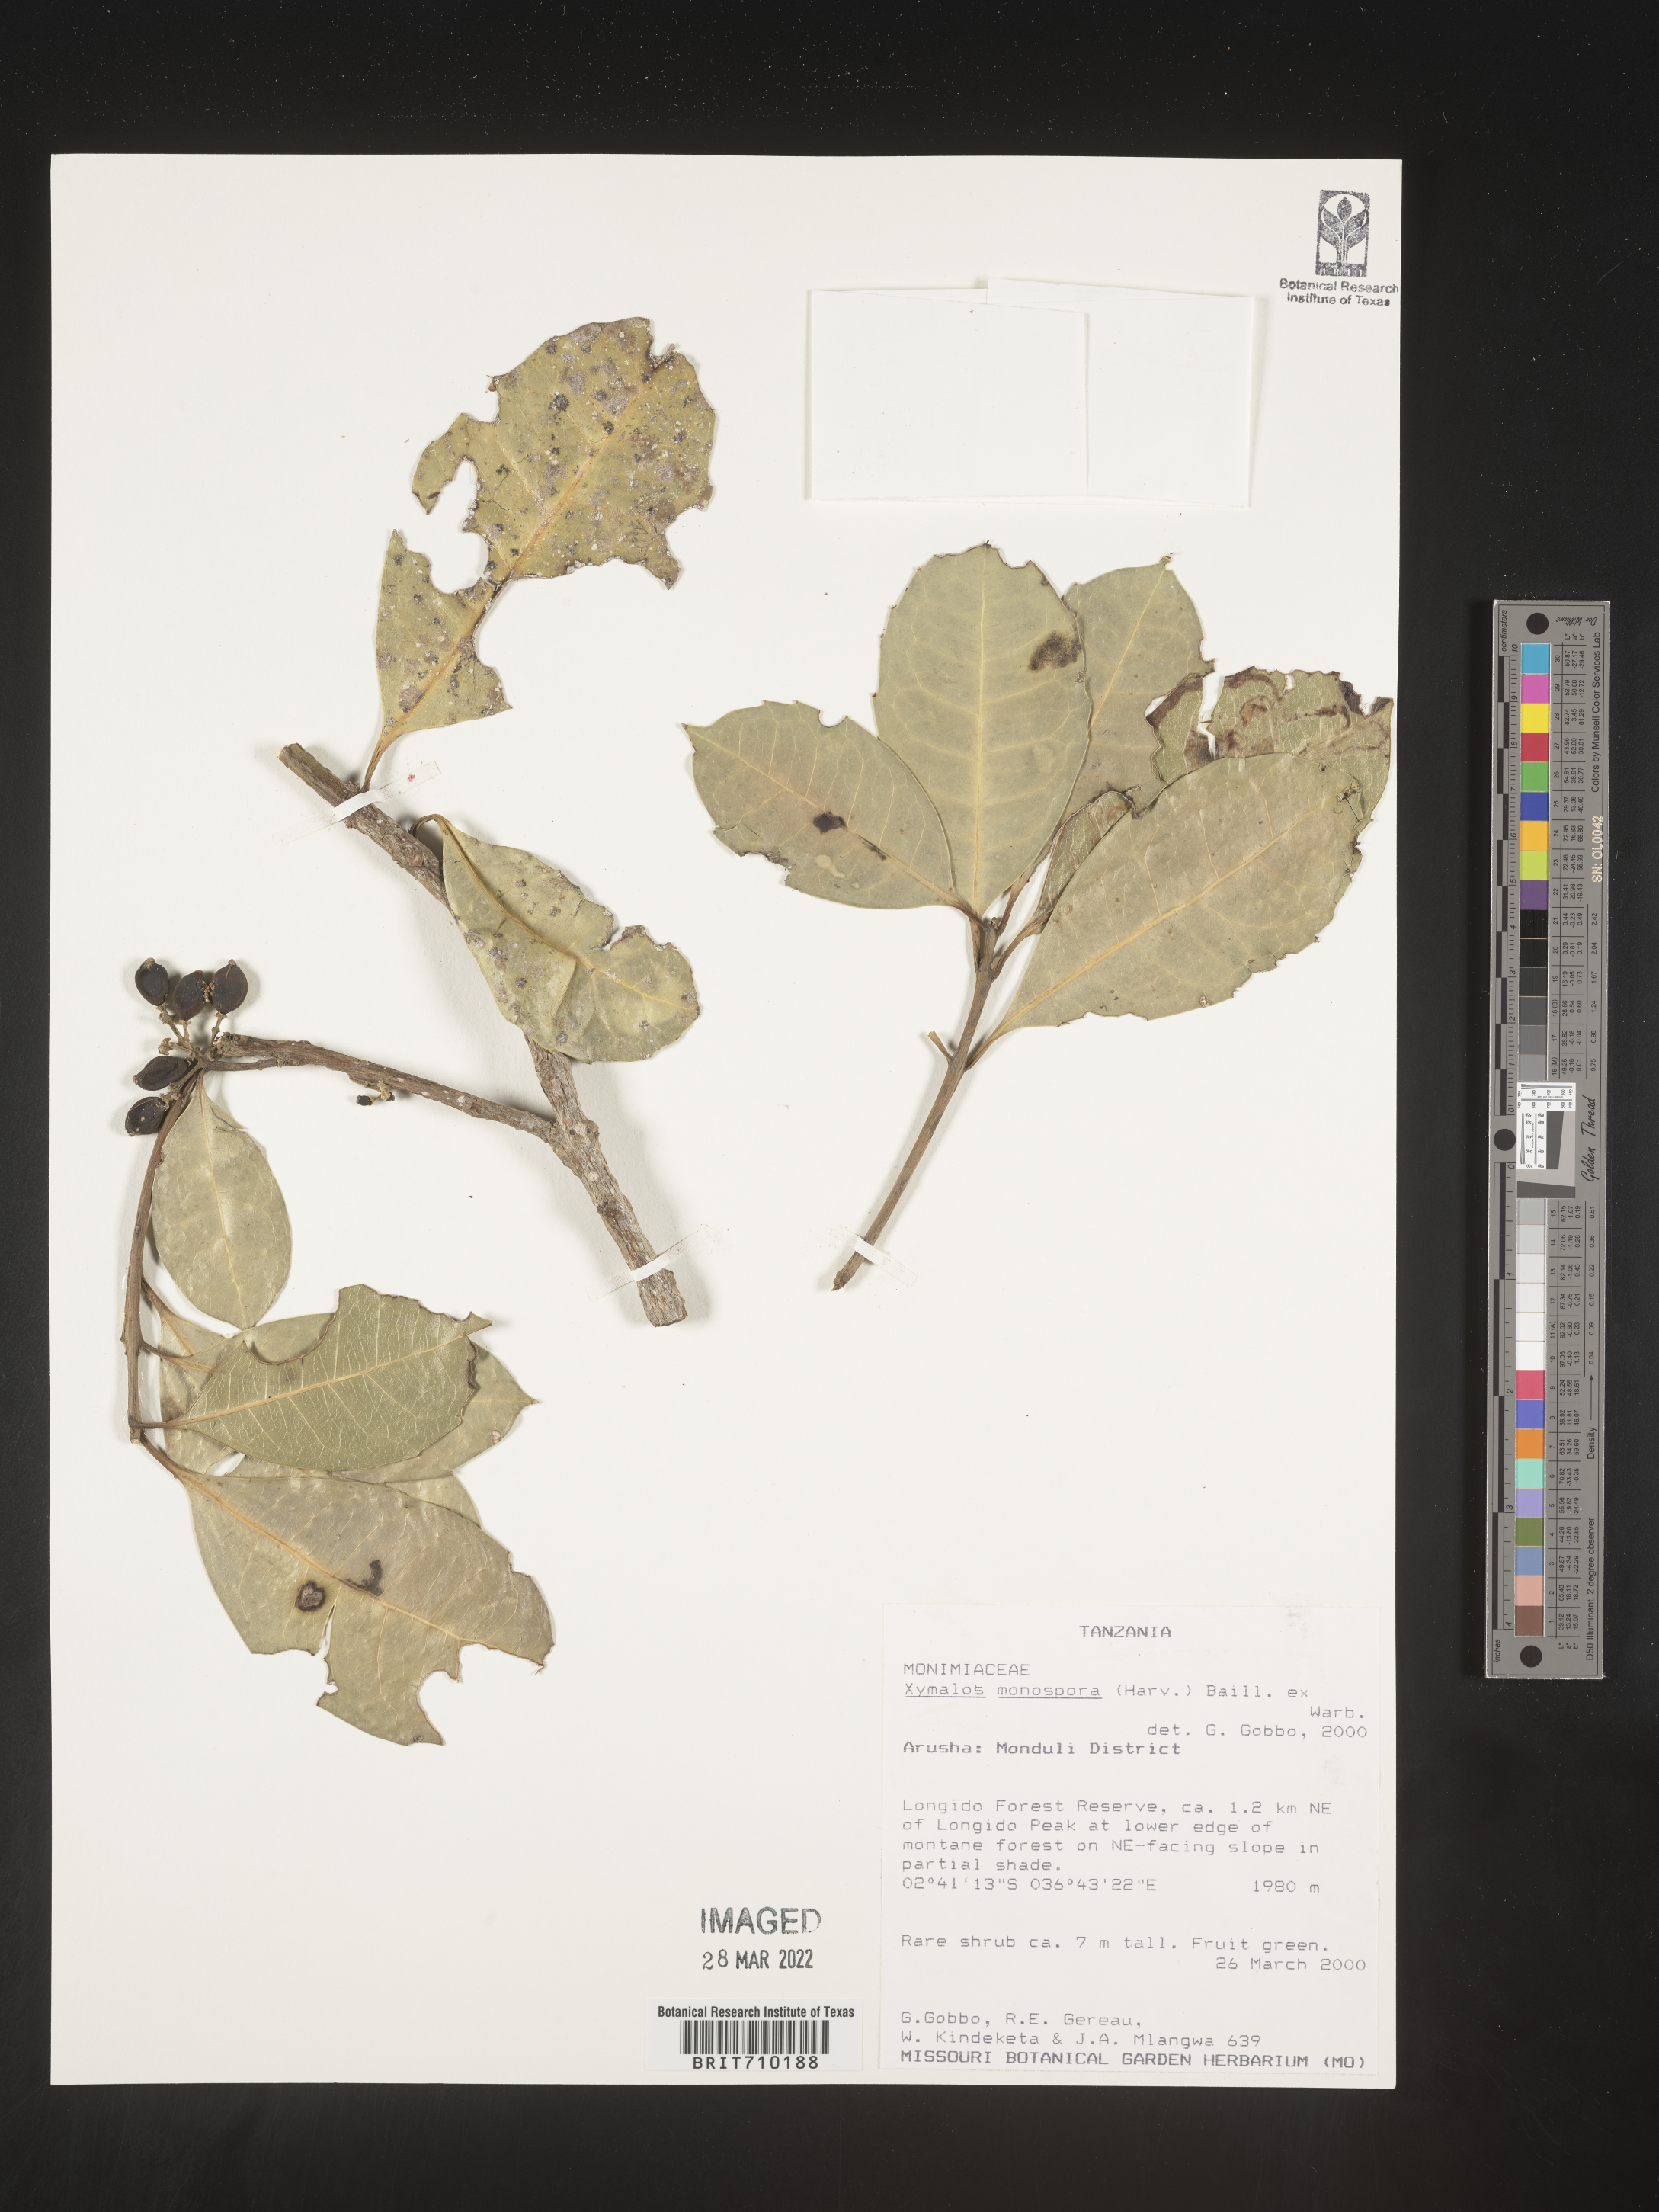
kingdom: Plantae
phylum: Tracheophyta
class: Magnoliopsida
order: Laurales
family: Monimiaceae
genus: Xymalos
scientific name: Xymalos
